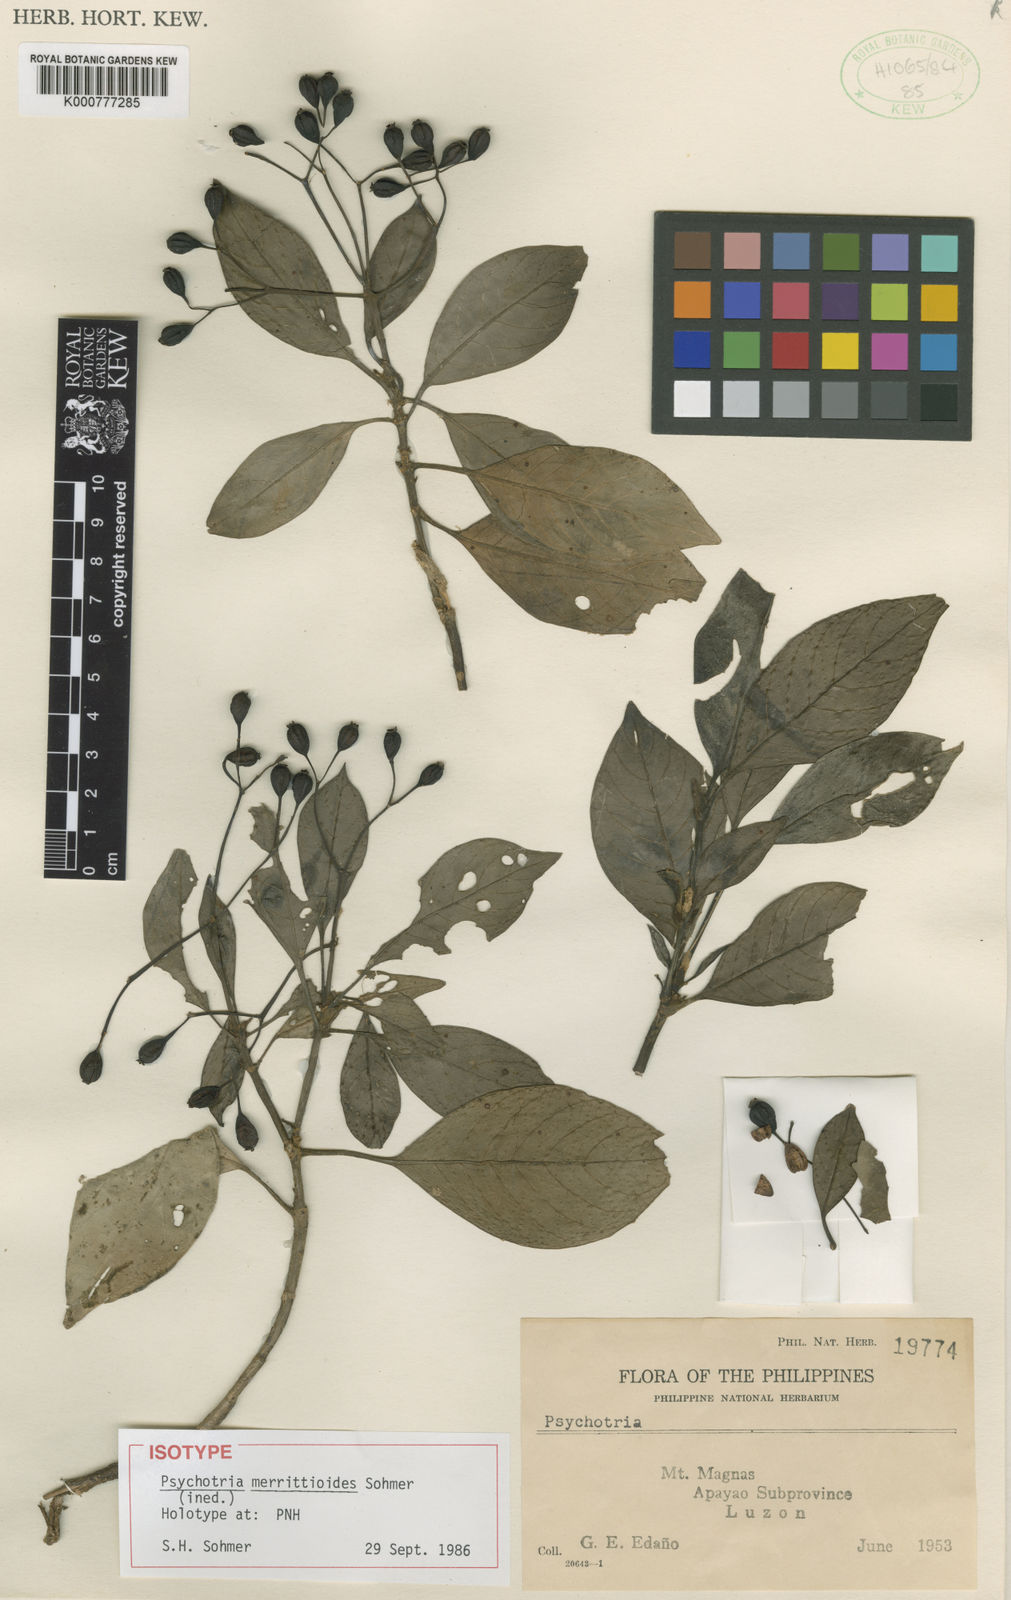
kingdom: Plantae
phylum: Tracheophyta
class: Magnoliopsida
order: Gentianales
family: Rubiaceae
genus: Psychotria
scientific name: Psychotria merrittioides
